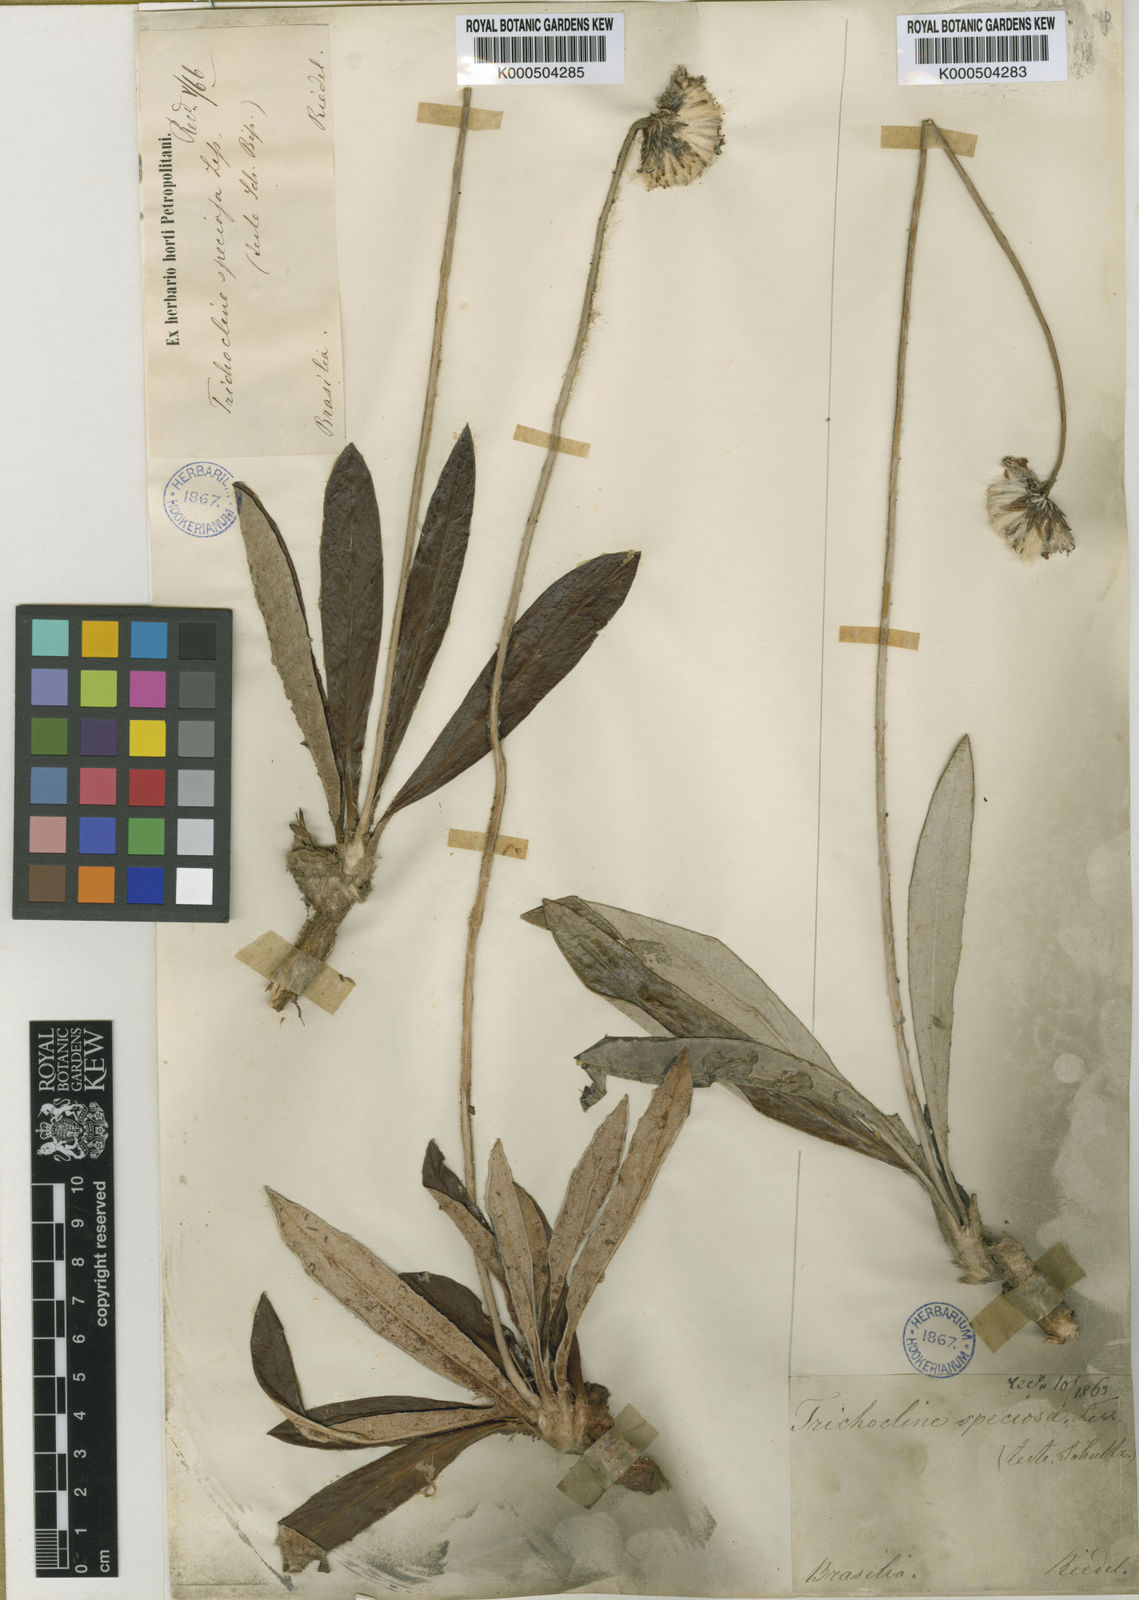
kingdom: Plantae
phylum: Tracheophyta
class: Magnoliopsida
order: Asterales
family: Asteraceae
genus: Trichocline
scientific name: Trichocline speciosa
